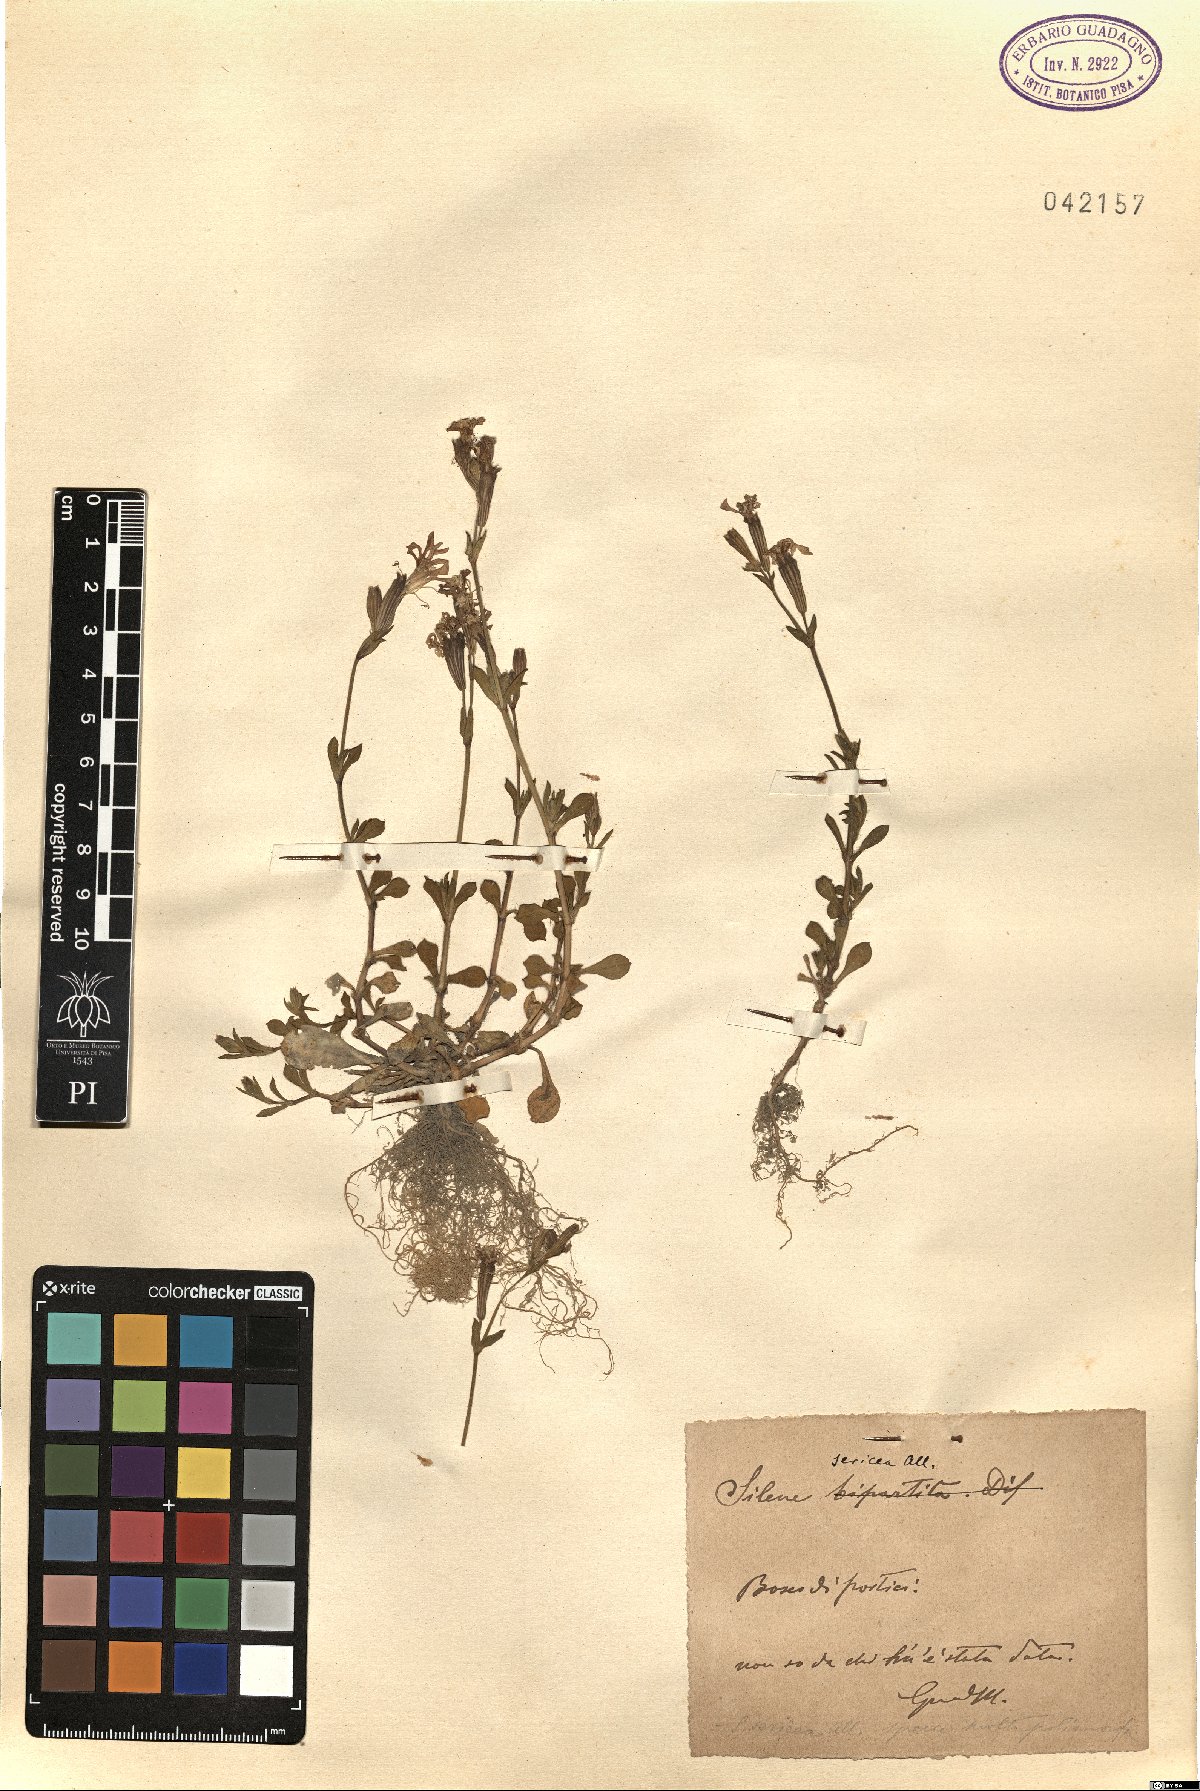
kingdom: Plantae
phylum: Tracheophyta
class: Magnoliopsida
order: Caryophyllales
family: Caryophyllaceae
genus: Silene
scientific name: Silene sericea
